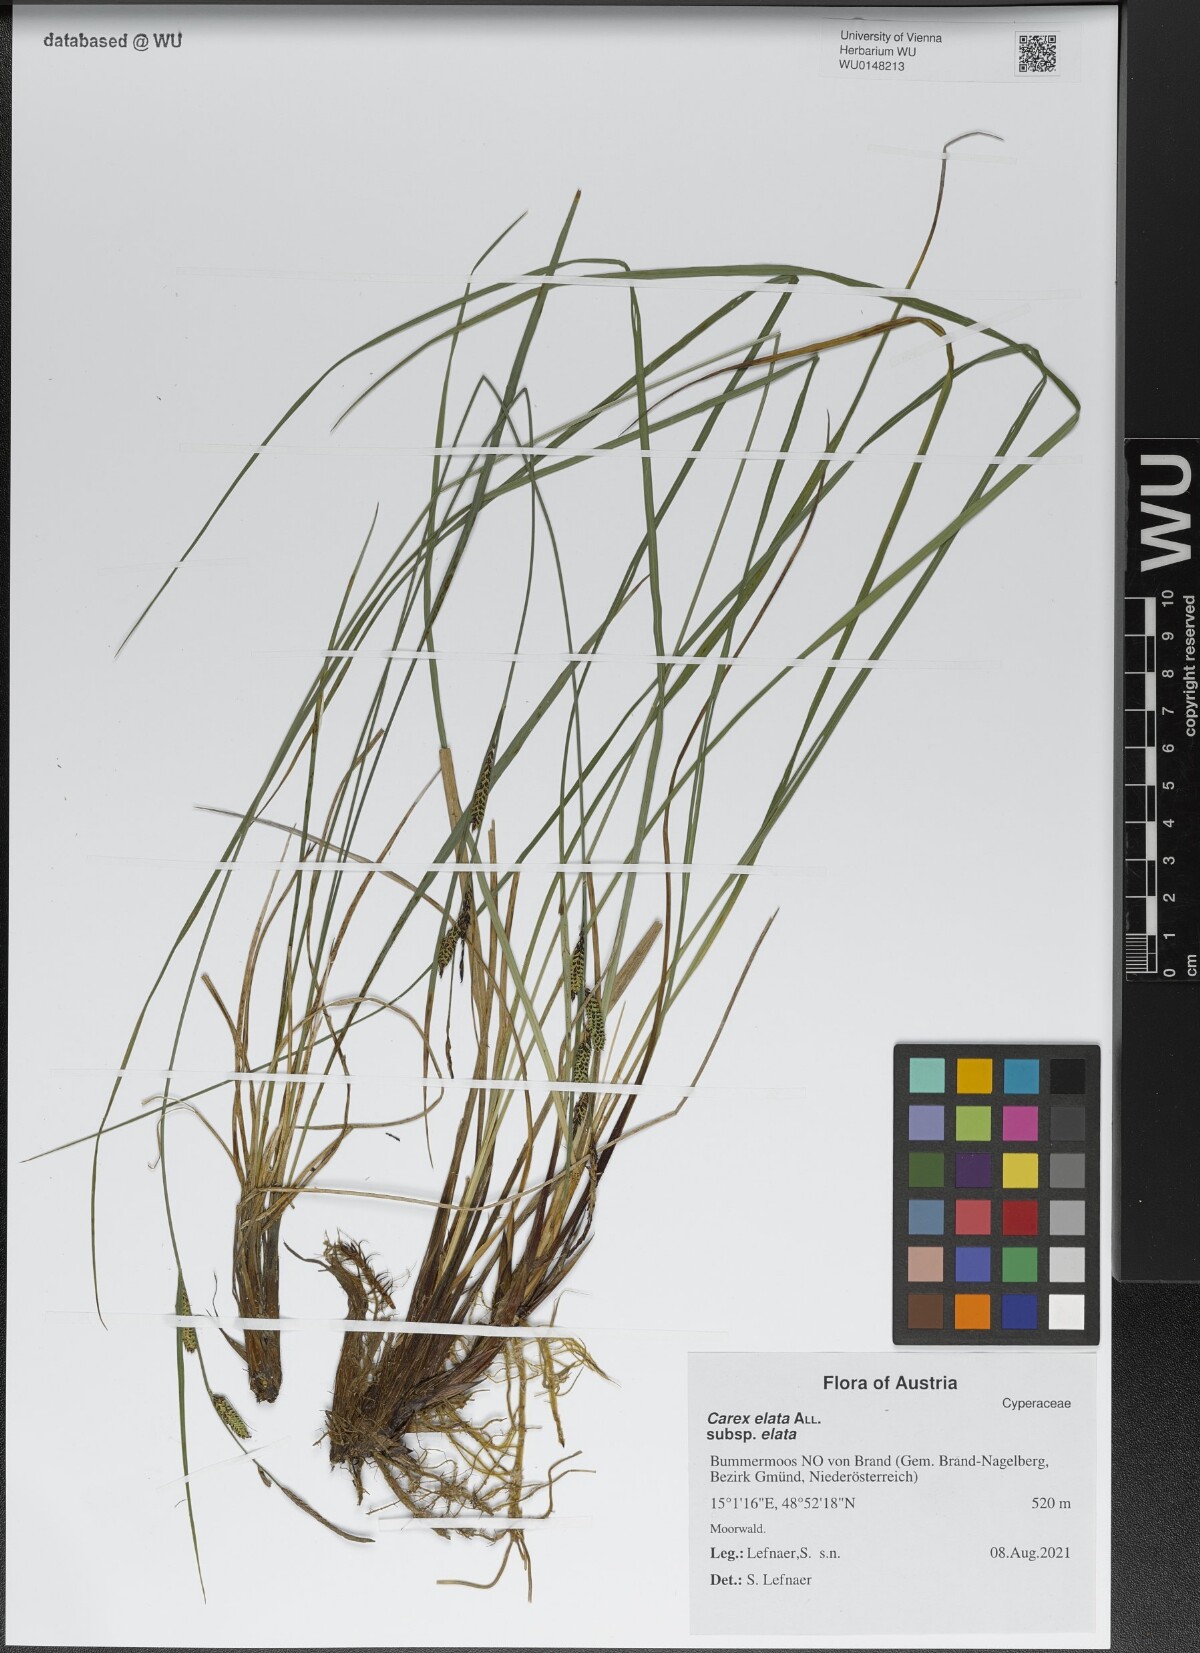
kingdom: Plantae
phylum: Tracheophyta
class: Liliopsida
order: Poales
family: Cyperaceae
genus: Carex
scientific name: Carex elata
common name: Tufted sedge
